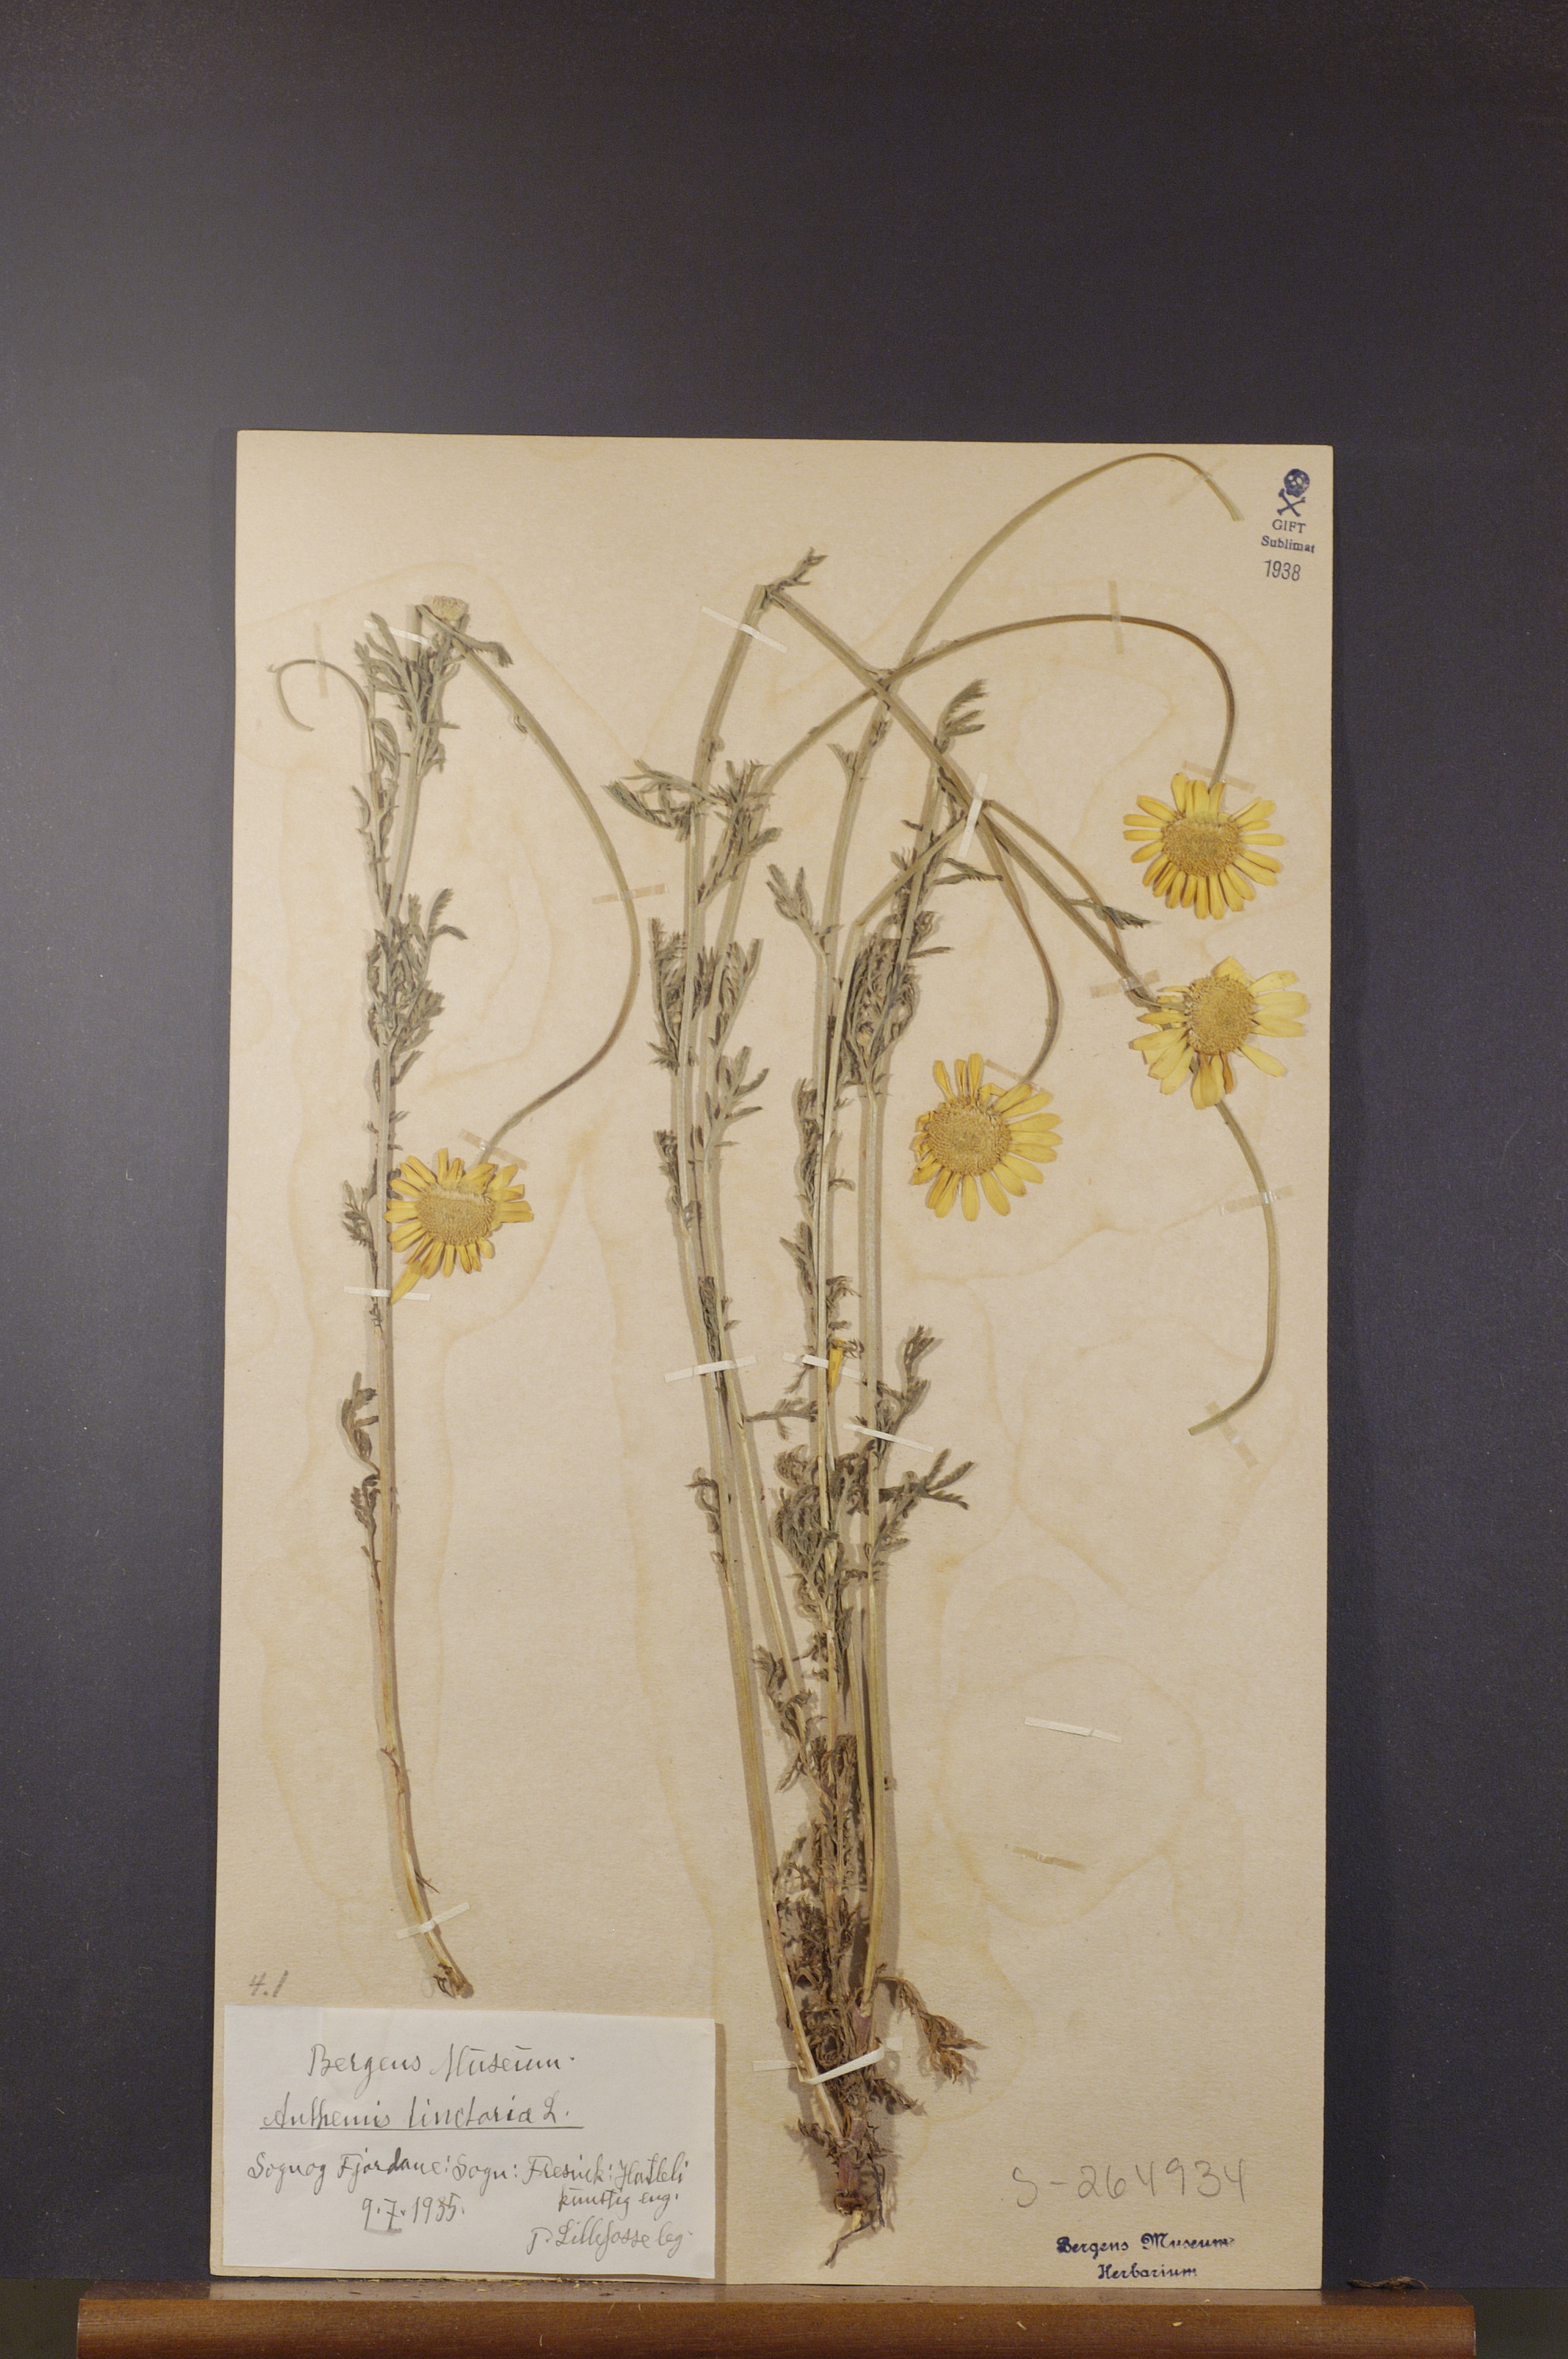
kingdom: Plantae
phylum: Tracheophyta
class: Magnoliopsida
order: Asterales
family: Asteraceae
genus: Cota
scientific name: Cota tinctoria
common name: Golden chamomile
